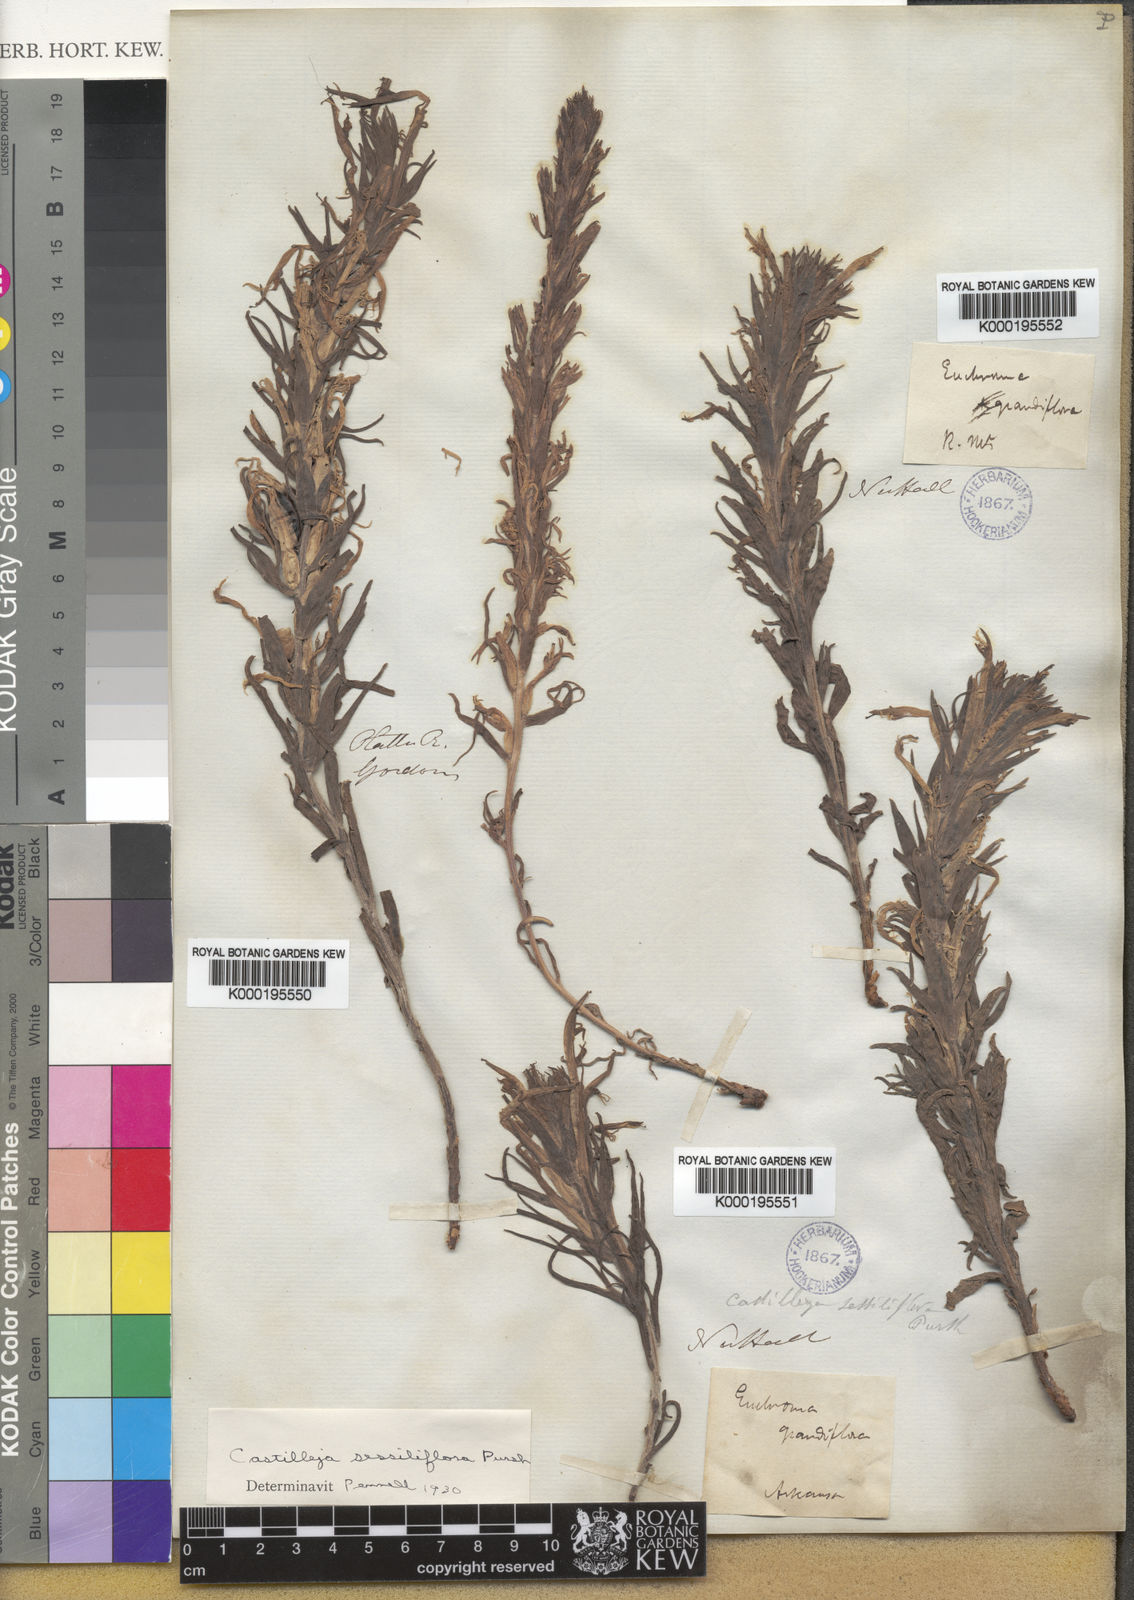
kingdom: Plantae
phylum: Tracheophyta
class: Magnoliopsida
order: Lamiales
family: Orobanchaceae
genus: Castilleja
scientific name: Castilleja sessiliflora
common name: Downy paintbrush
